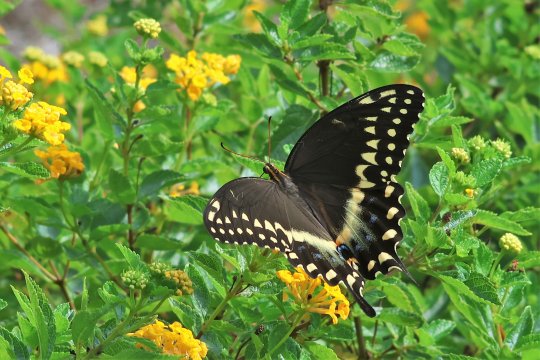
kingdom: Animalia
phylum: Arthropoda
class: Insecta
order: Lepidoptera
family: Papilionidae
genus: Pterourus
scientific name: Pterourus palamedes
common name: Palamedes Swallowtail
